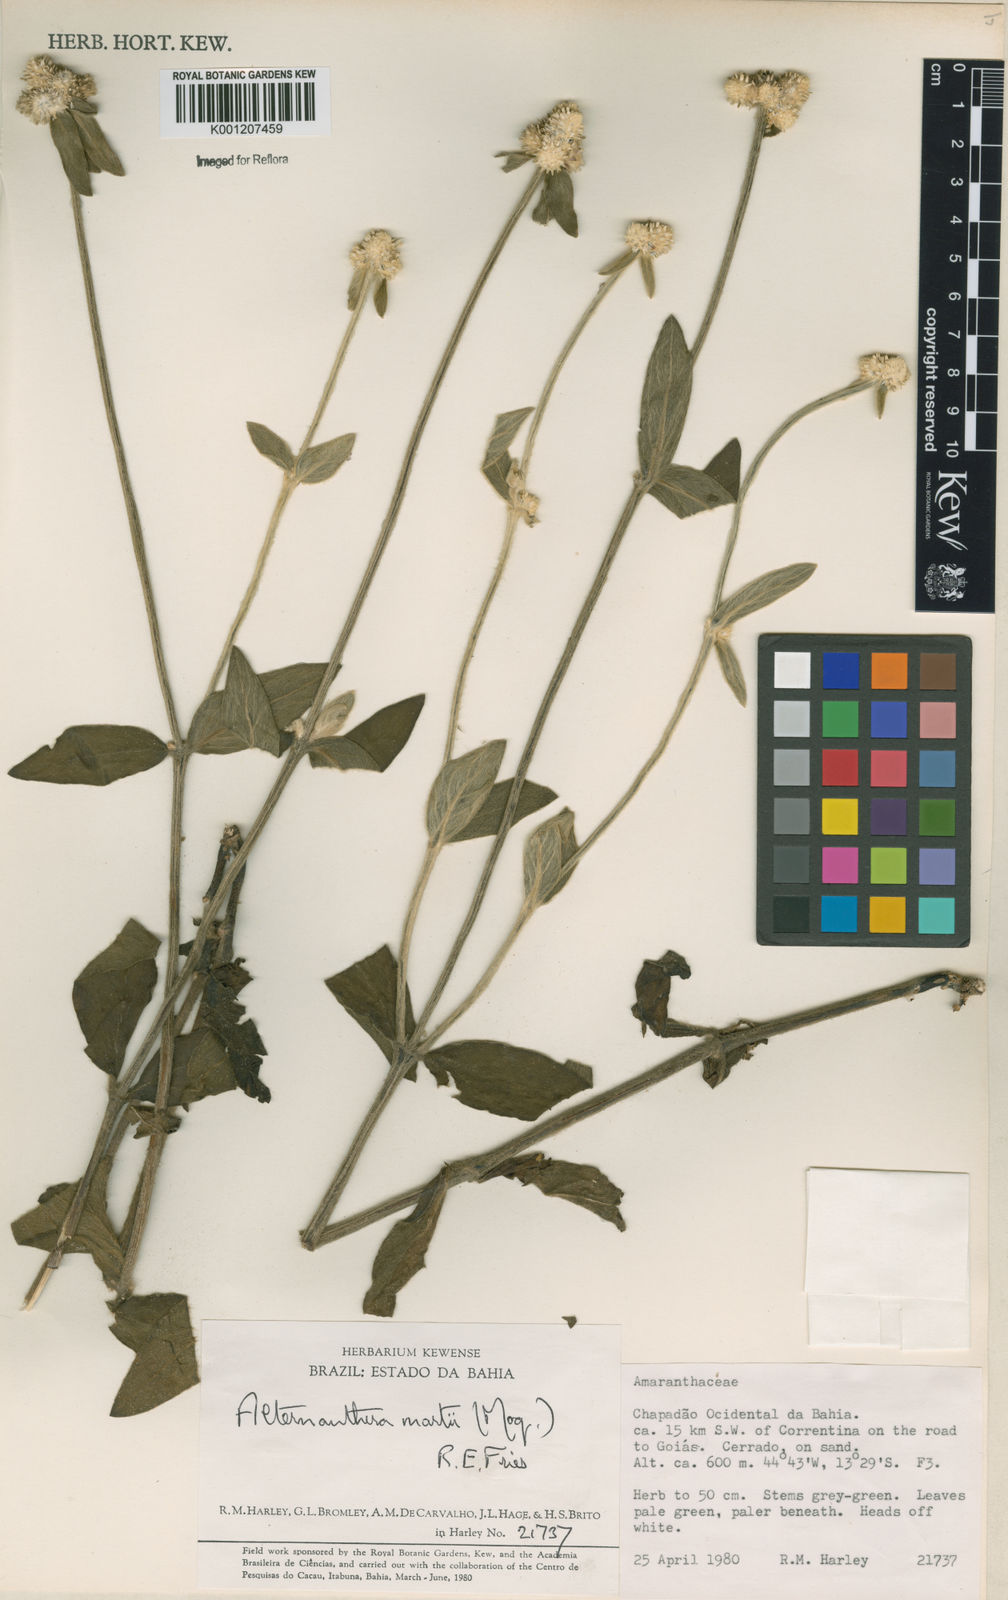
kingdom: Plantae
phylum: Tracheophyta
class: Magnoliopsida
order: Caryophyllales
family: Amaranthaceae
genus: Alternanthera
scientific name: Alternanthera martii
